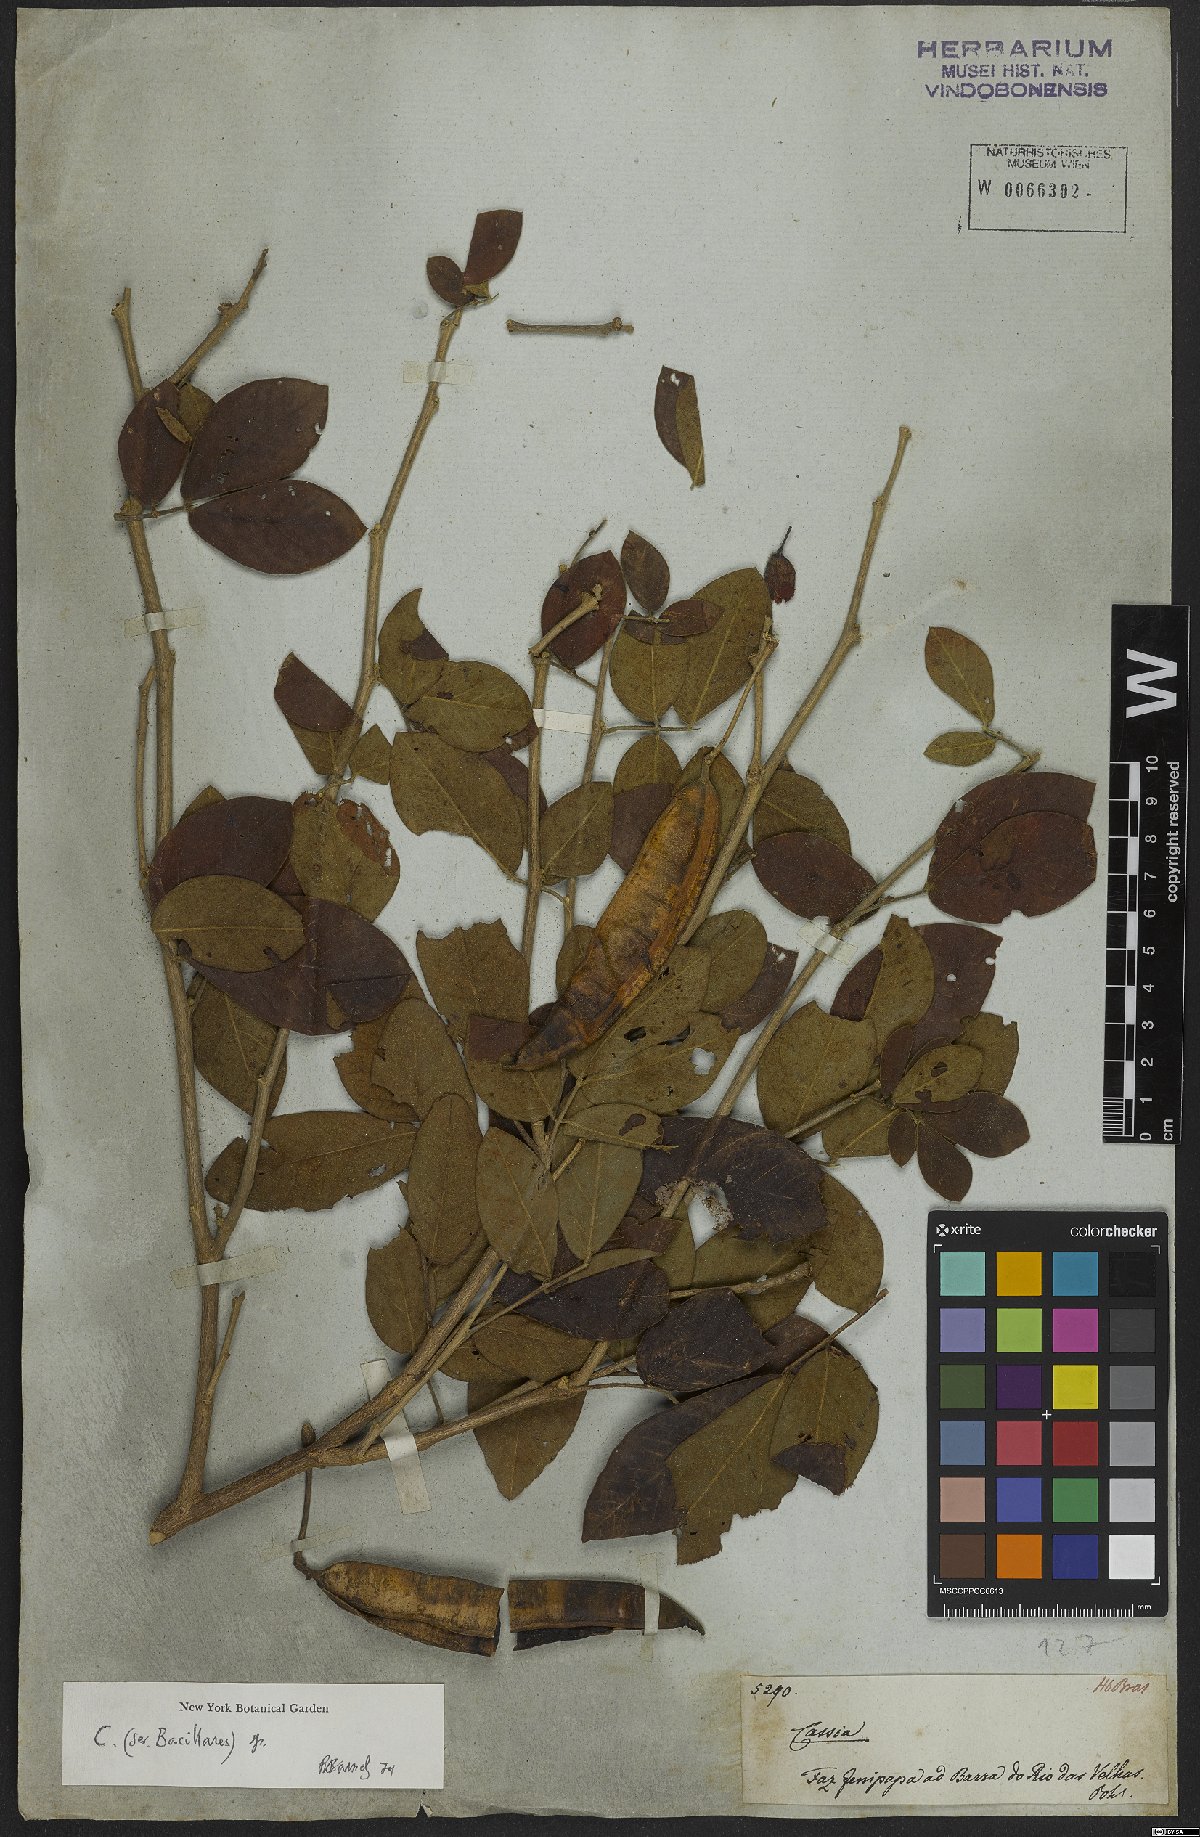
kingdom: Plantae
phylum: Tracheophyta
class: Magnoliopsida
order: Fabales
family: Fabaceae
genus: Cassia
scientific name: Cassia
